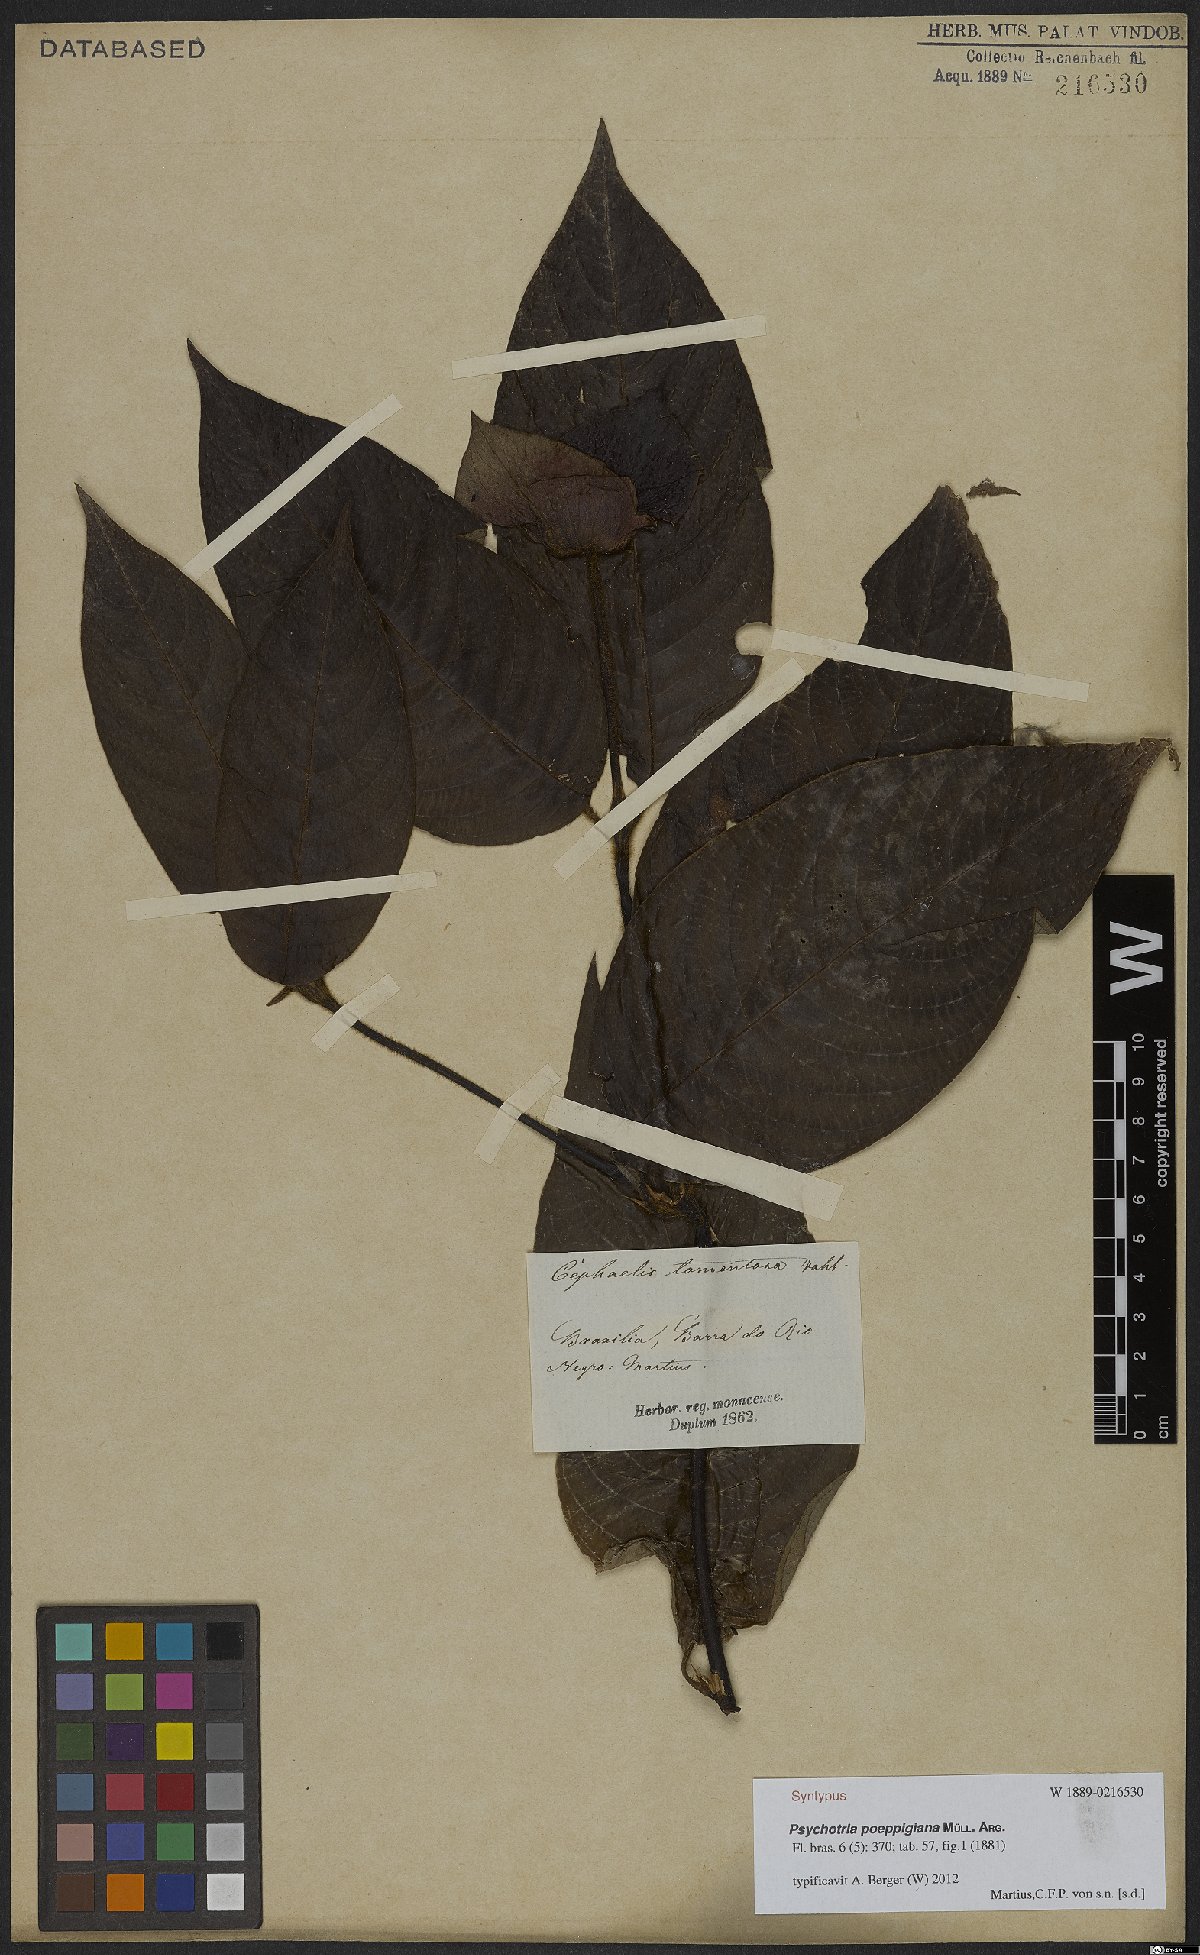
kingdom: Plantae
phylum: Tracheophyta
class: Magnoliopsida
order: Gentianales
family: Rubiaceae
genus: Palicourea
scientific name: Palicourea tomentosa
